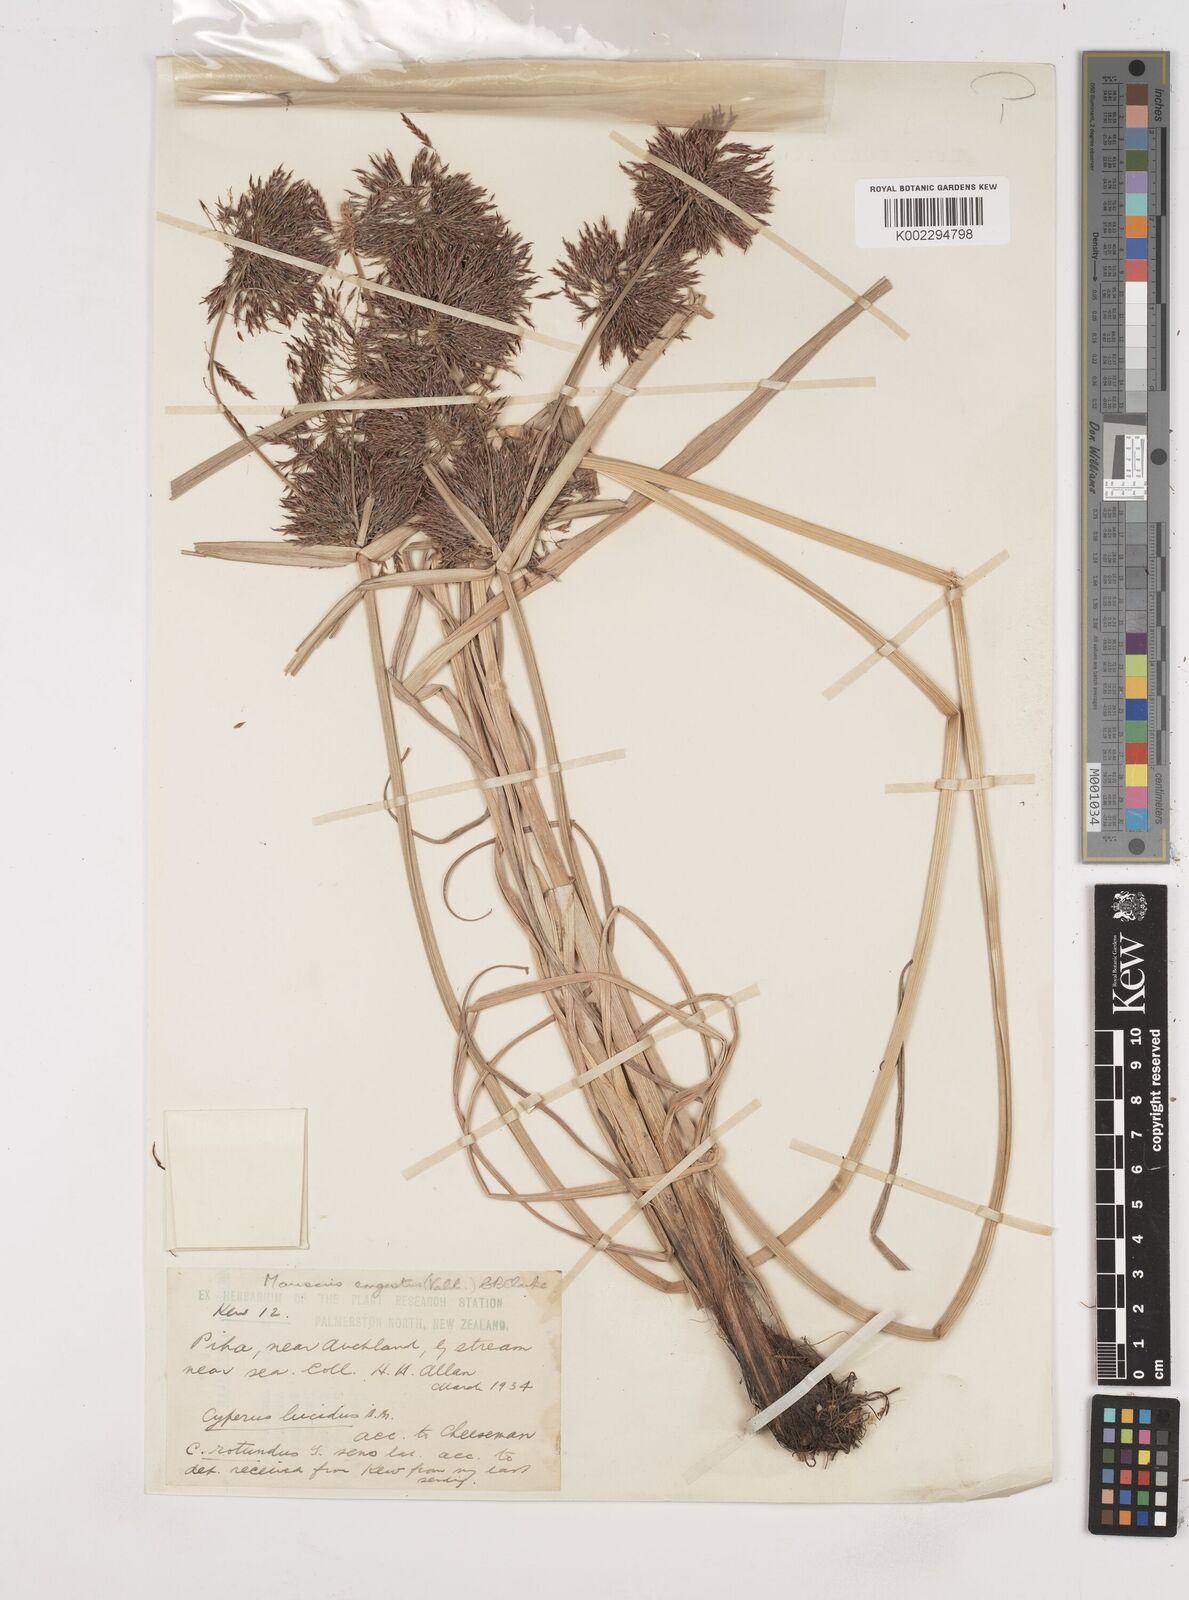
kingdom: Plantae
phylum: Tracheophyta
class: Liliopsida
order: Poales
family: Cyperaceae
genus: Cyperus
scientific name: Cyperus congestus
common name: Dense flat sedge
